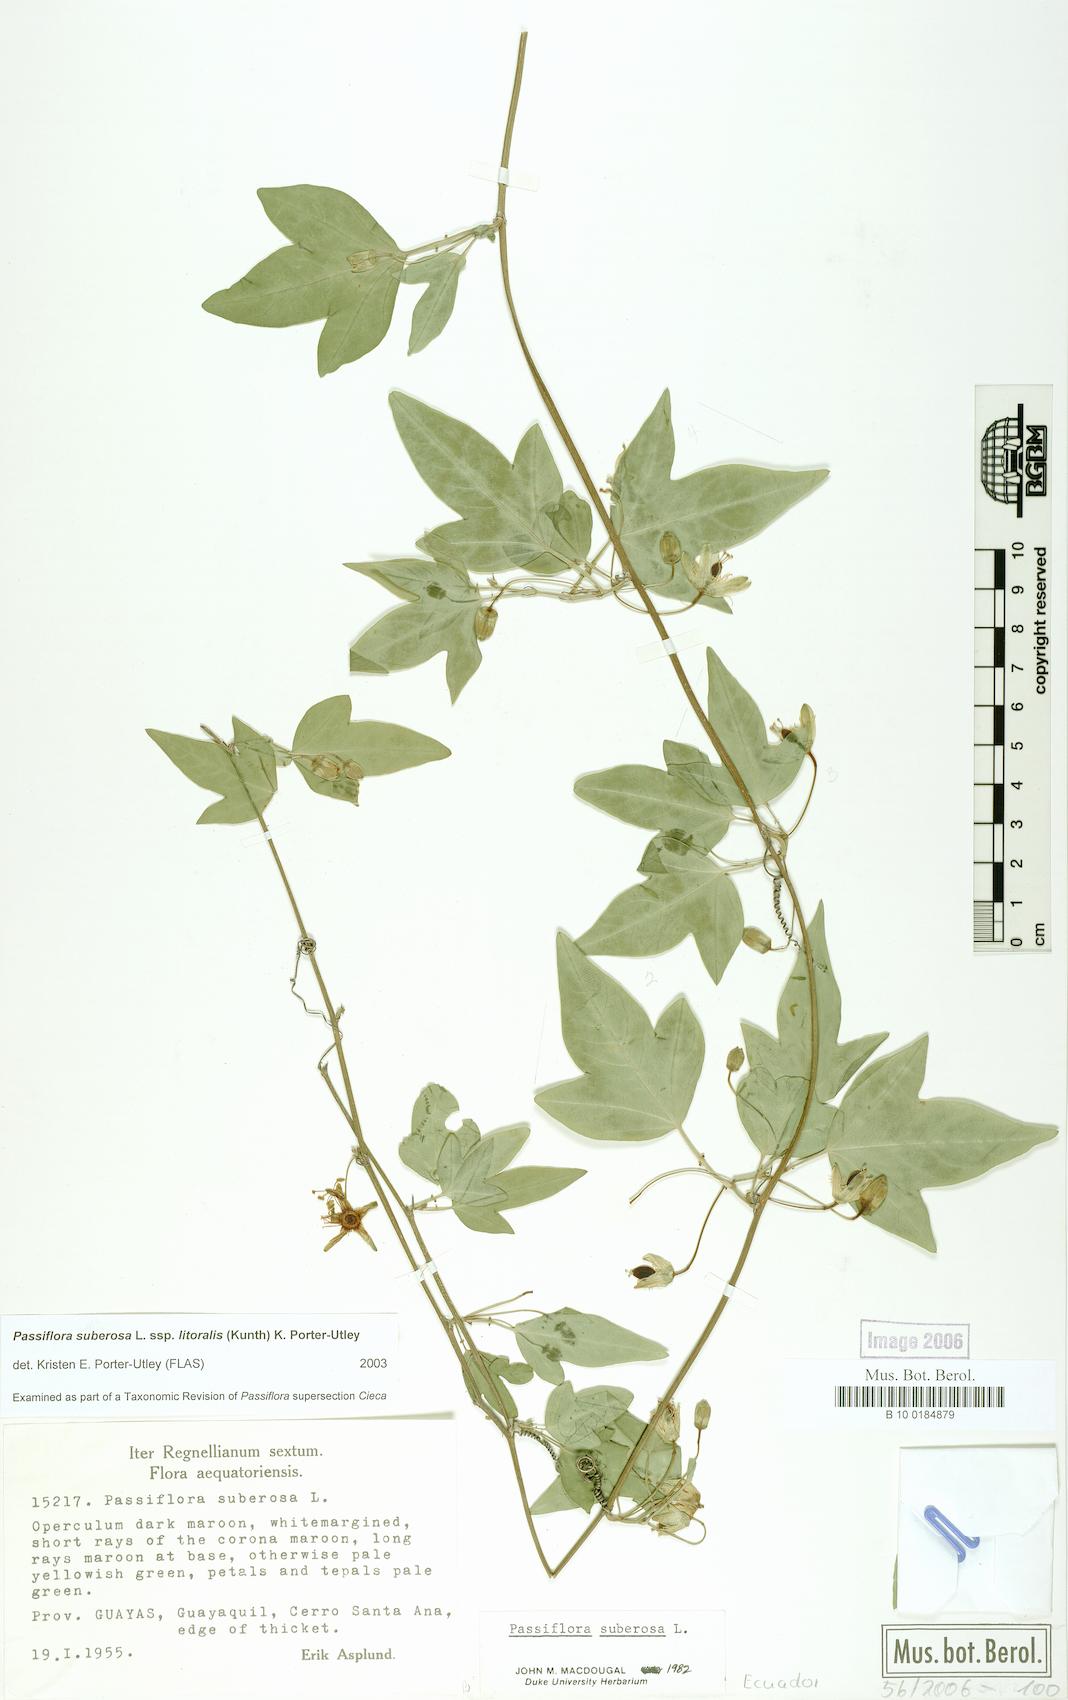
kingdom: Plantae
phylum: Tracheophyta
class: Magnoliopsida
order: Malpighiales
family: Passifloraceae
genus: Passiflora
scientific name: Passiflora suberosa
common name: Wild passionfruit
